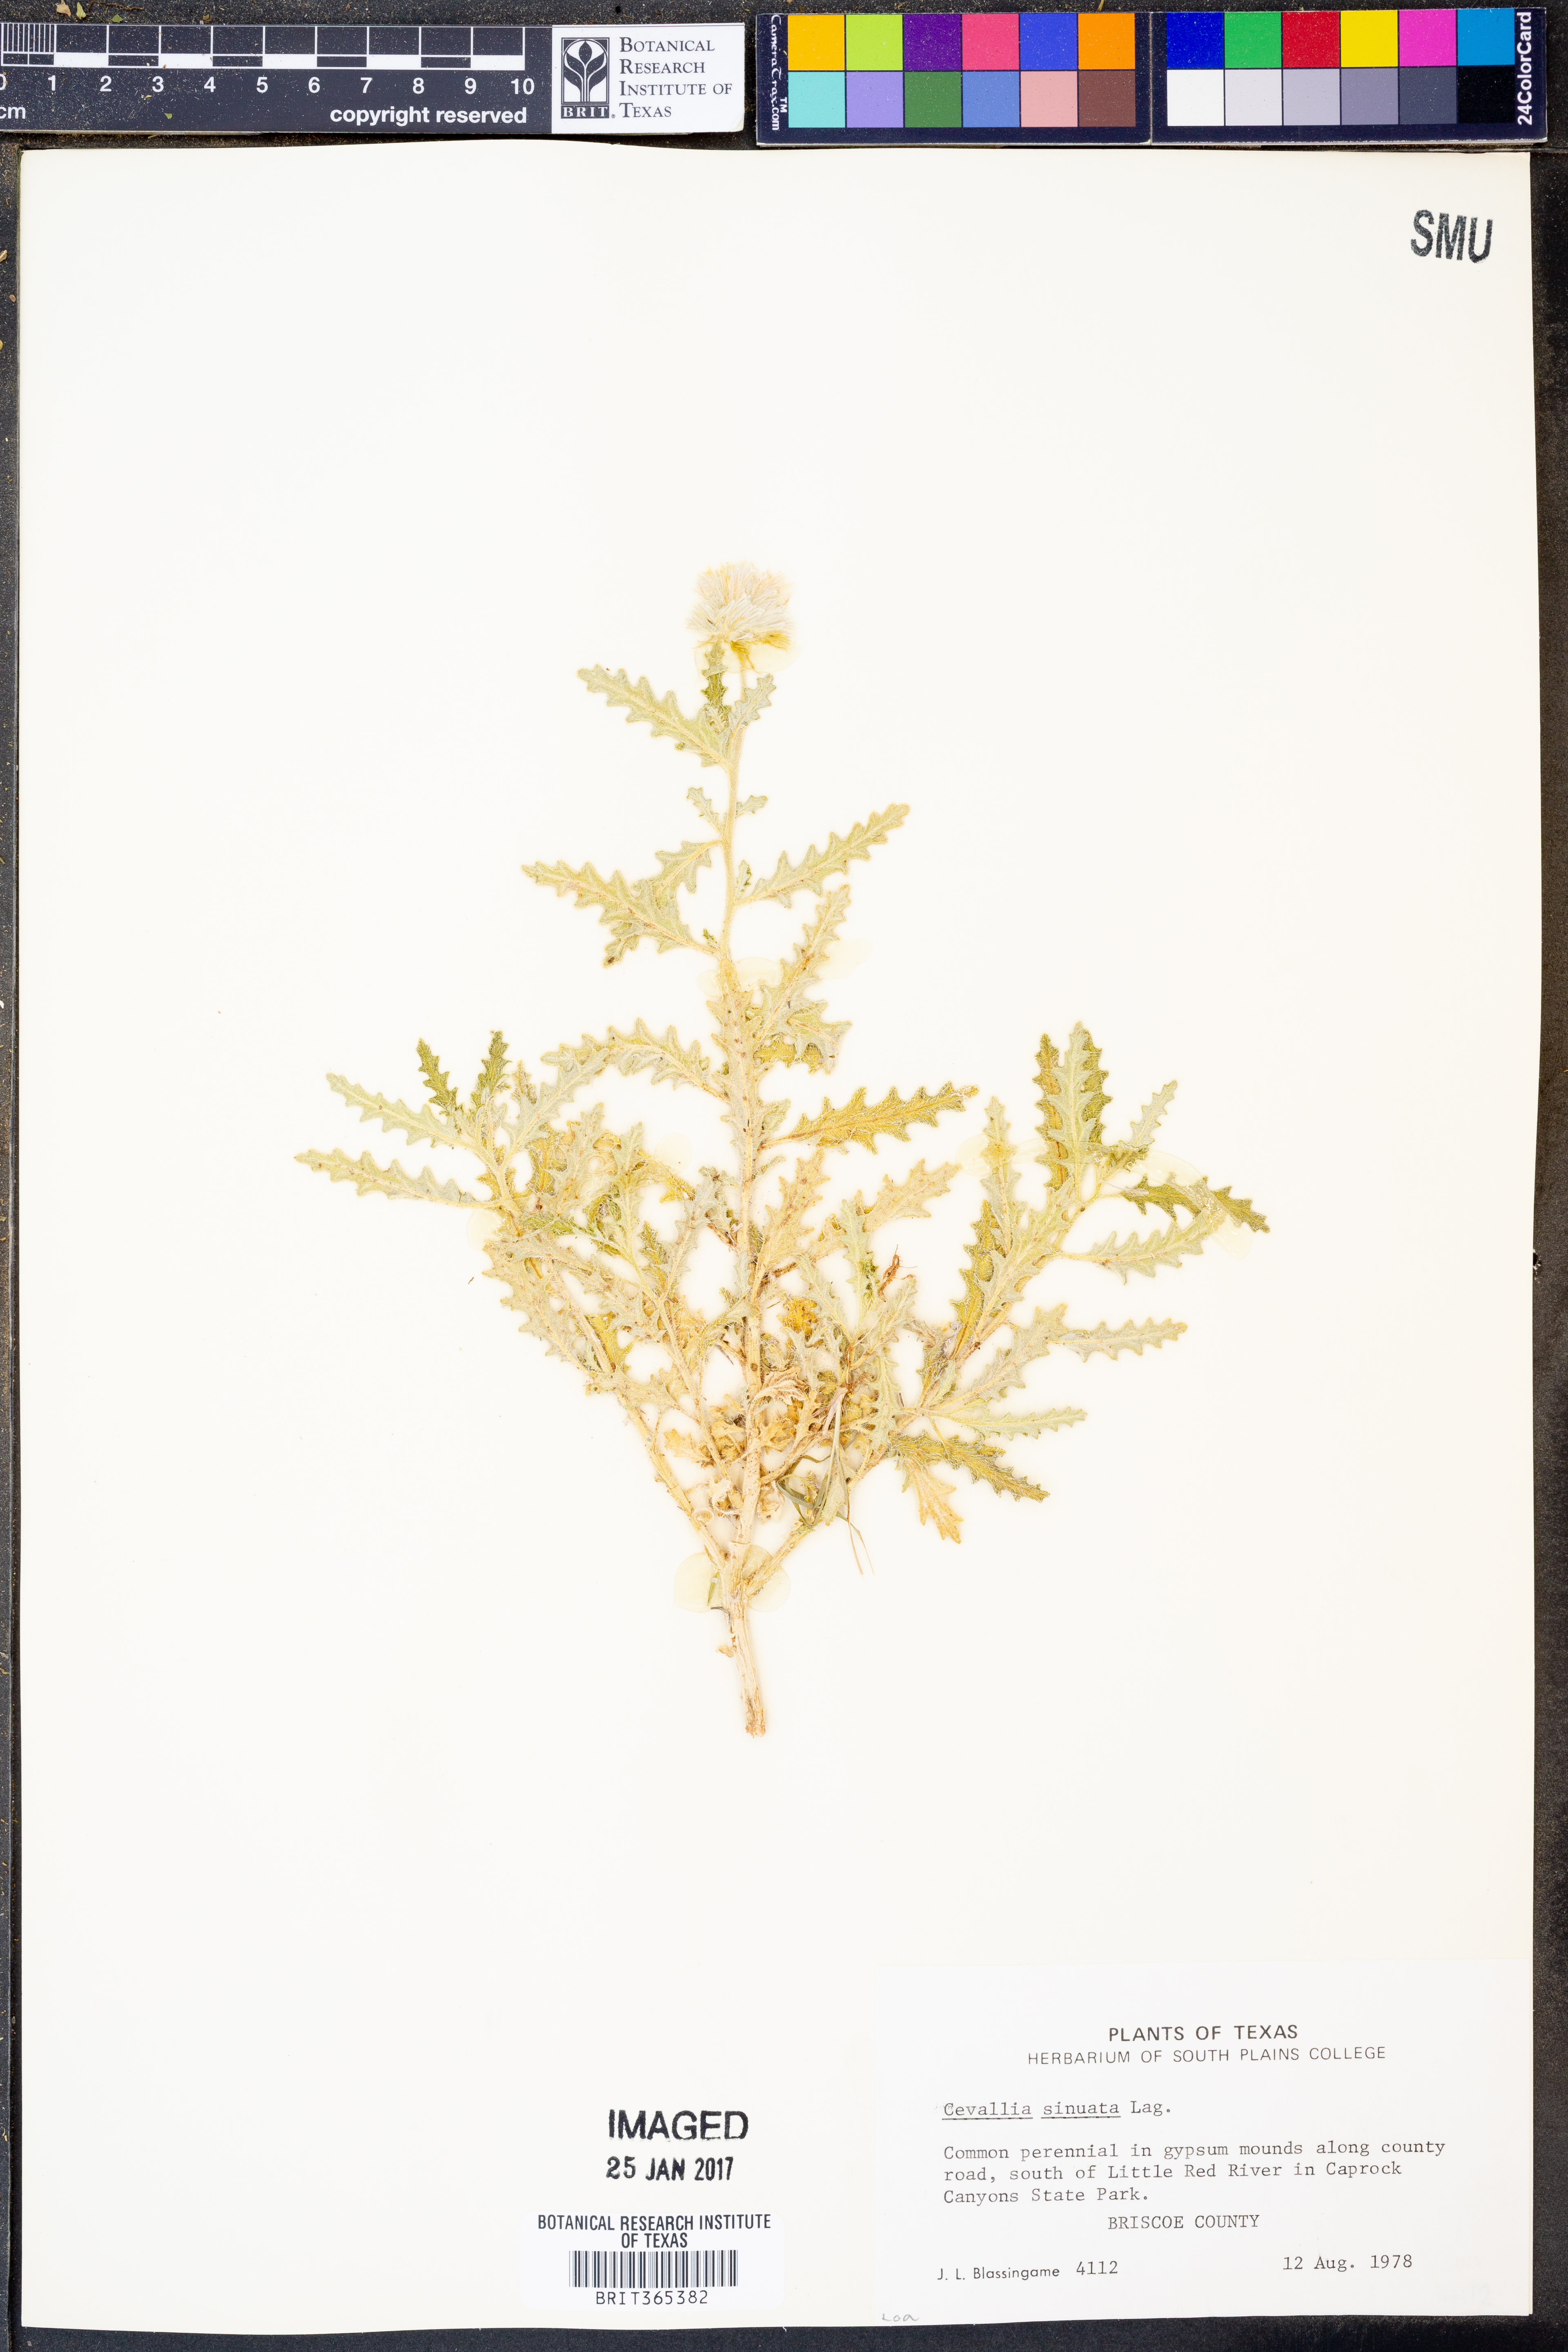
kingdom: Plantae
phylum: Tracheophyta
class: Magnoliopsida
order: Cornales
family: Loasaceae
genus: Cevallia
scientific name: Cevallia sinuata
